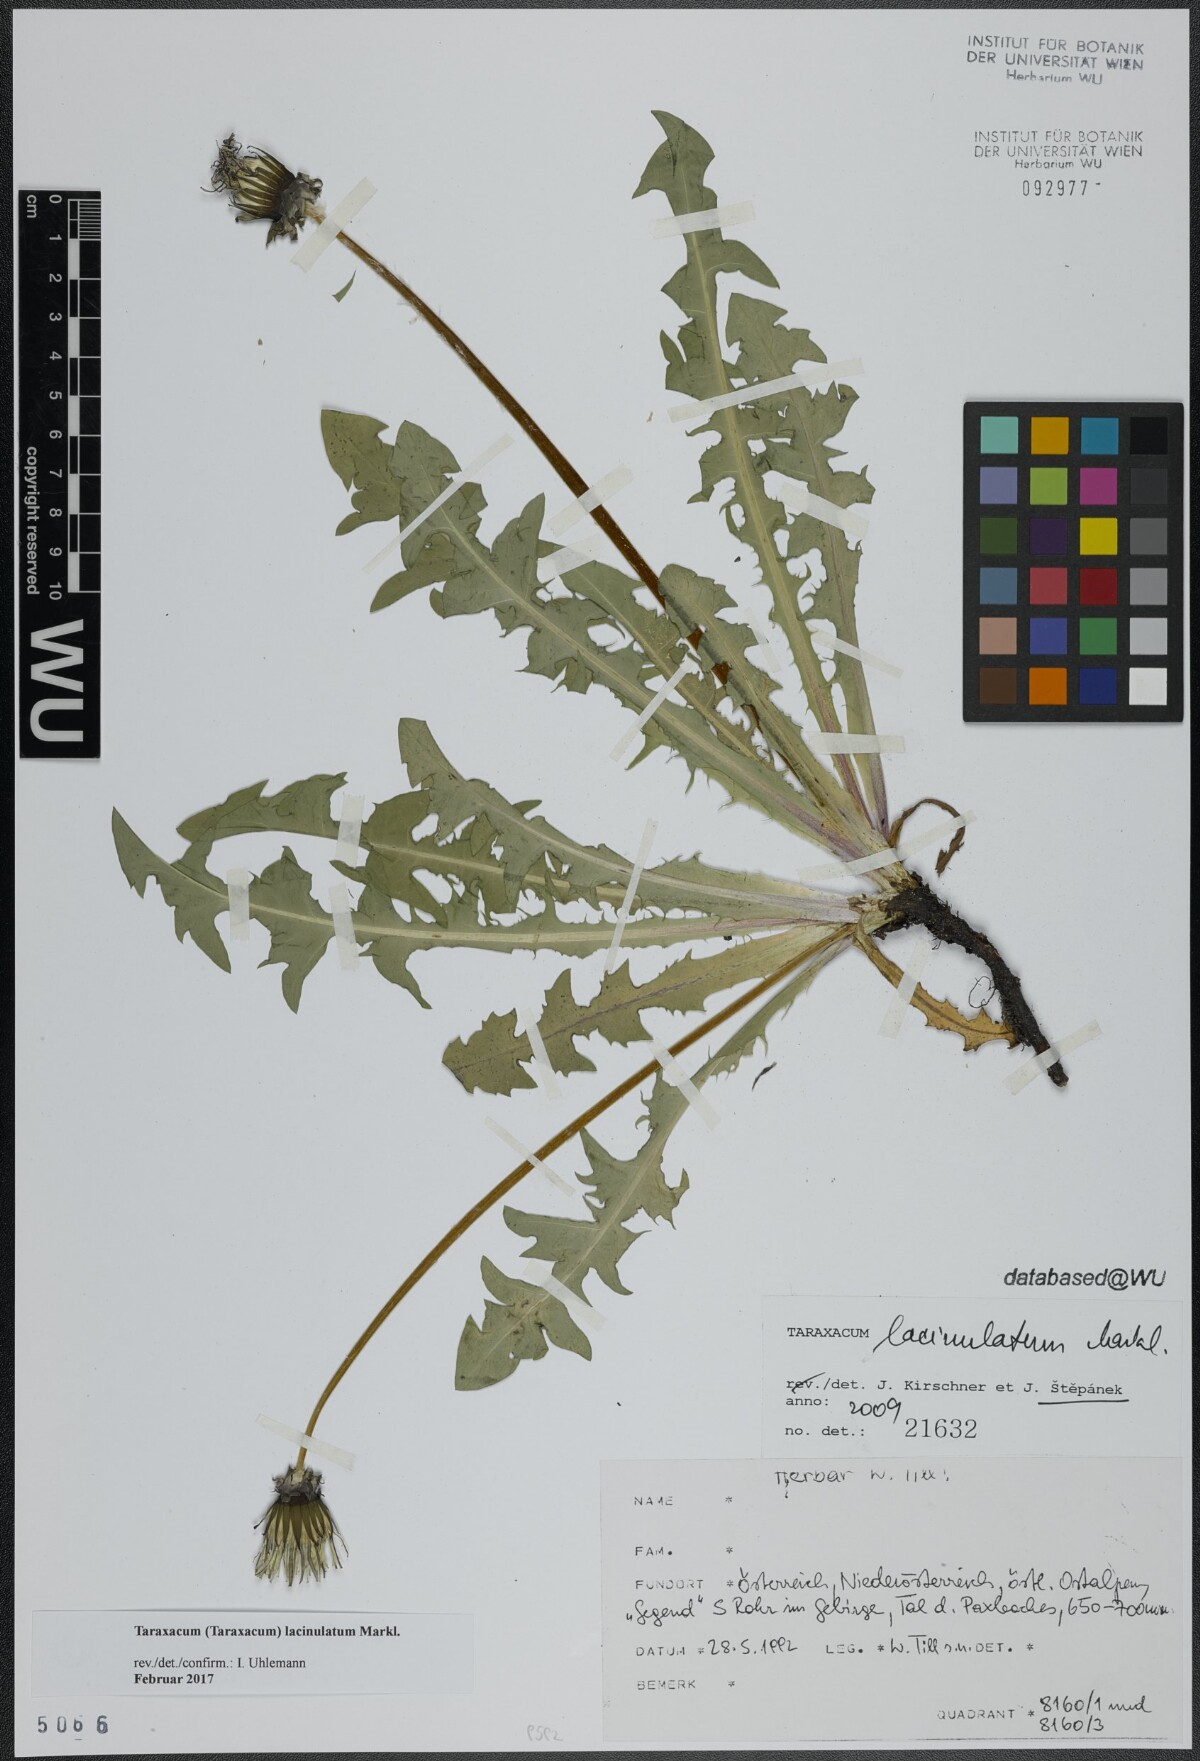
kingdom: Plantae
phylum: Tracheophyta
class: Magnoliopsida
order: Asterales
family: Asteraceae
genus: Taraxacum
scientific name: Taraxacum lacinulatum
